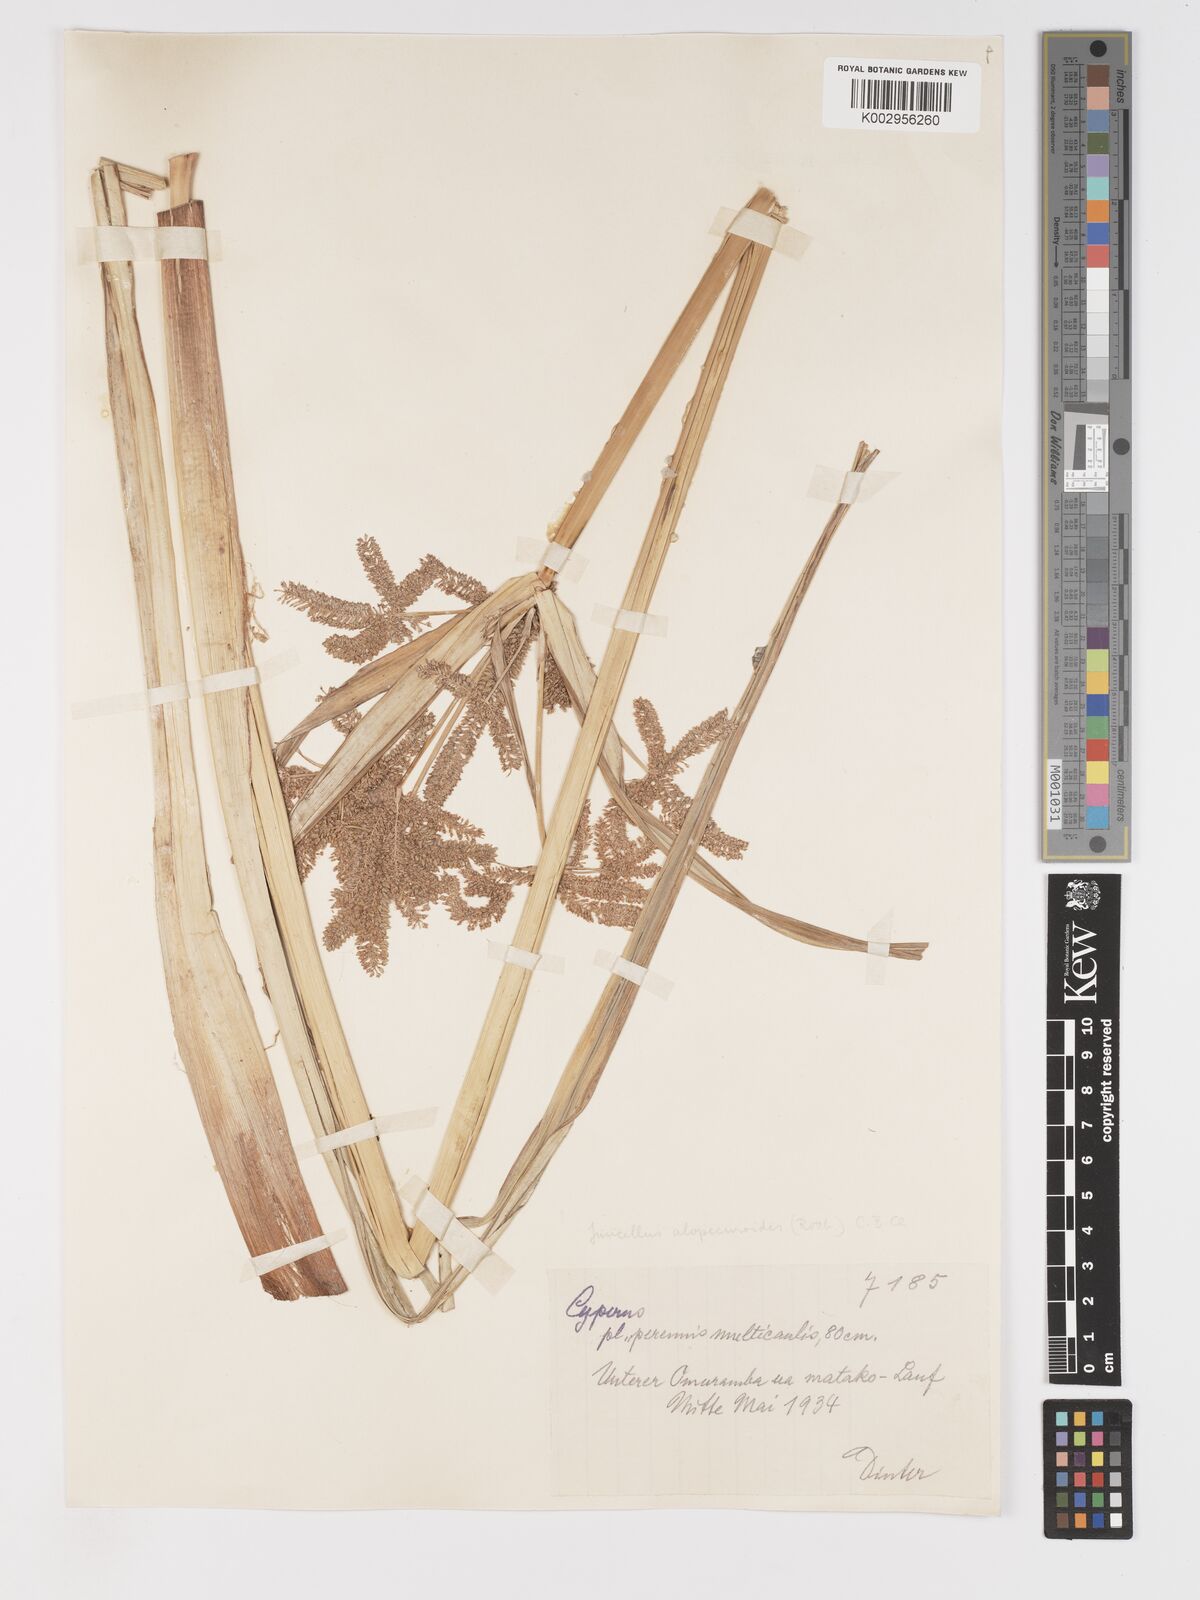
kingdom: Plantae
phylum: Tracheophyta
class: Liliopsida
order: Poales
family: Cyperaceae
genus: Cyperus
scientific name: Cyperus alopecuroides
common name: Foxtail flatsedge
